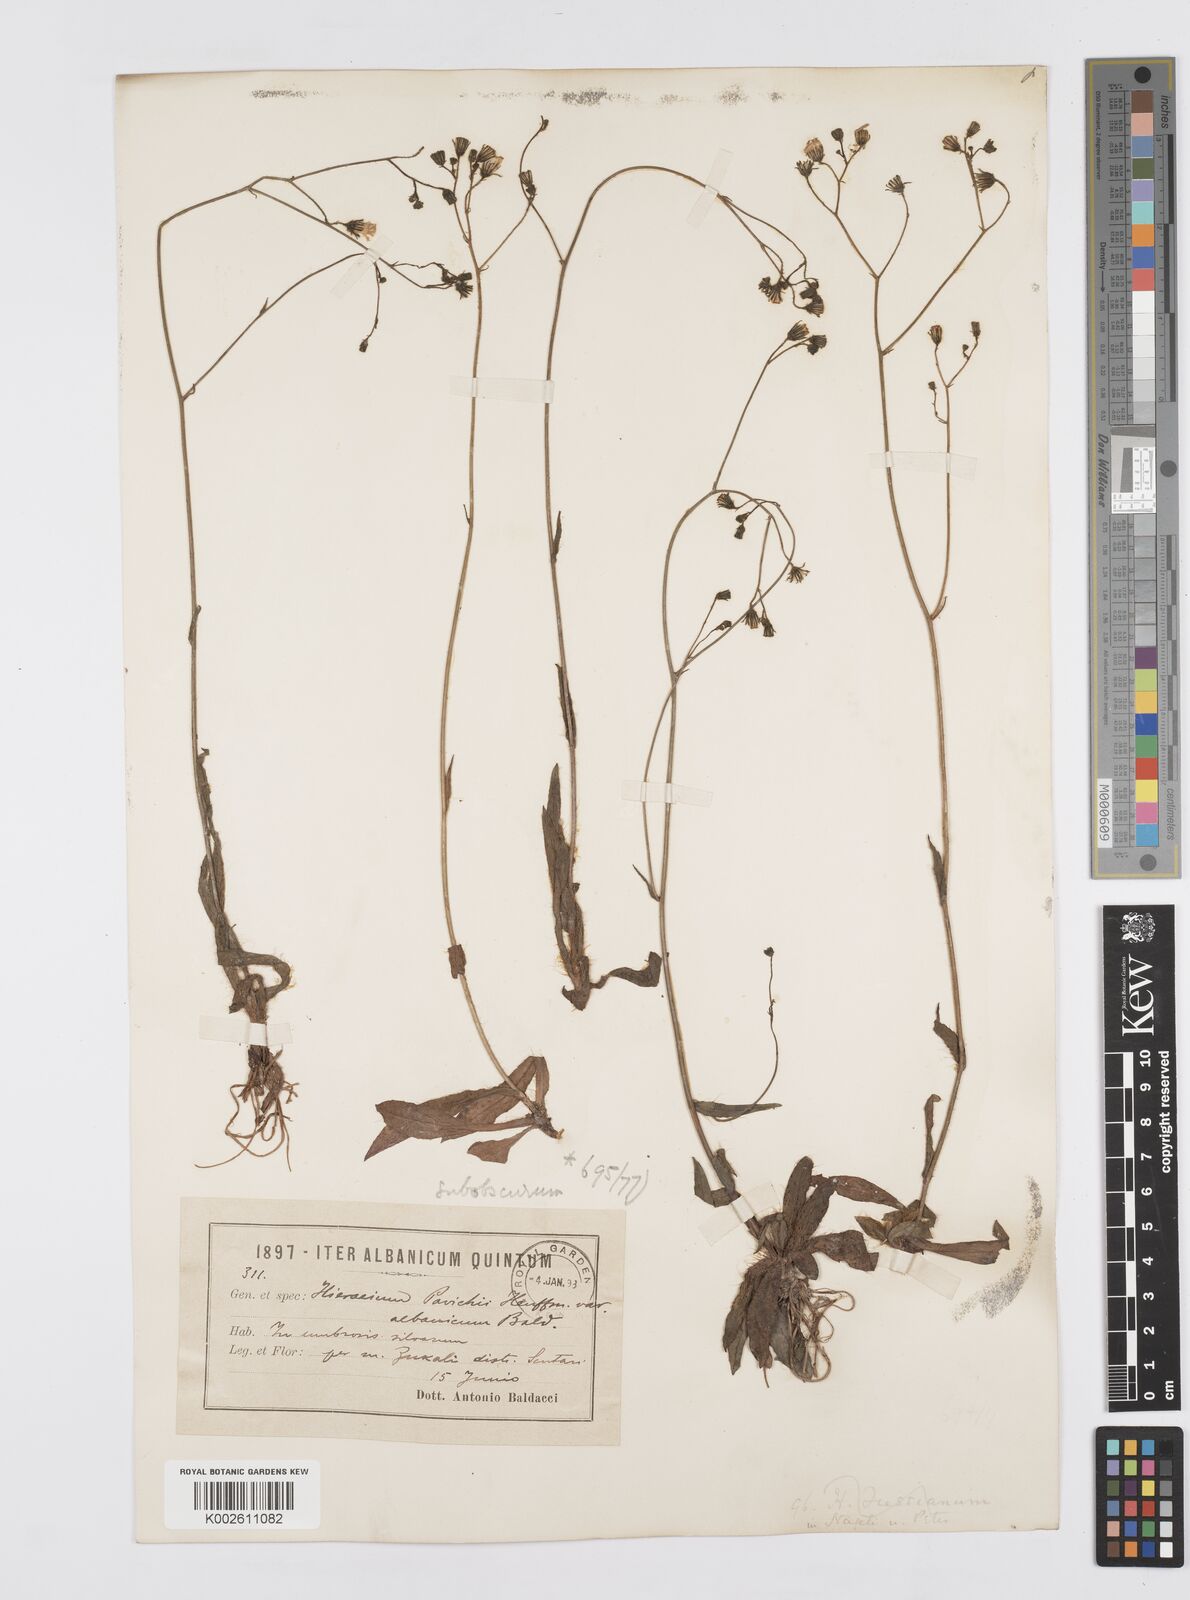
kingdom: Plantae
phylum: Tracheophyta
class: Magnoliopsida
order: Asterales
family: Asteraceae
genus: Pilosella
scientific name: Pilosella piloselloides
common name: Glaucous king-devil
